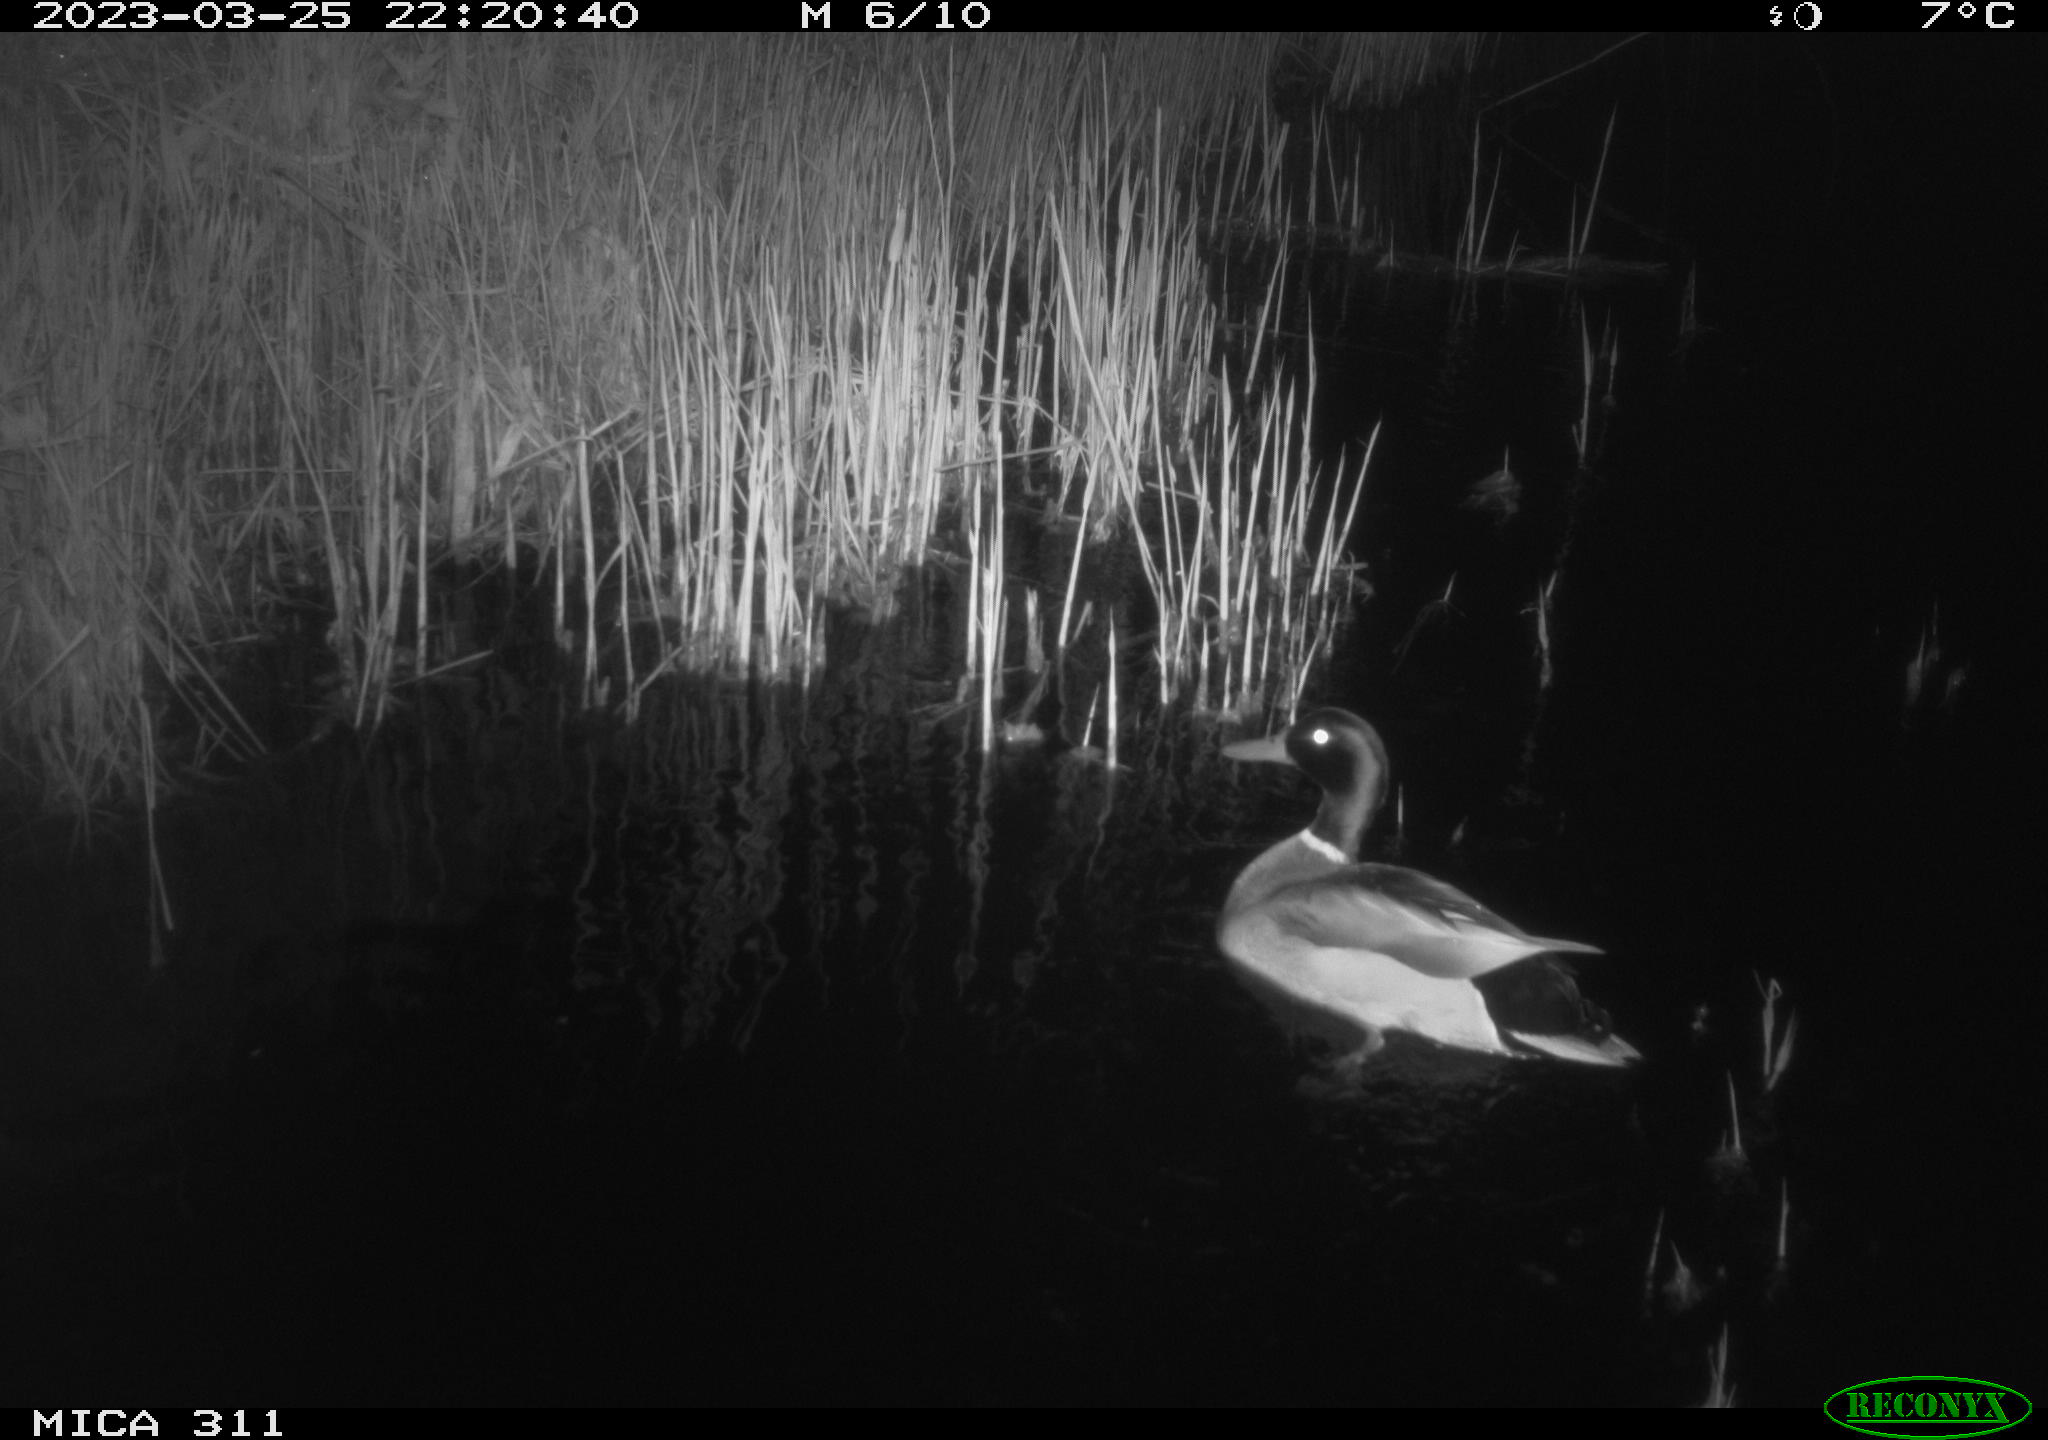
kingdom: Animalia
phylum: Chordata
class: Aves
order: Anseriformes
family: Anatidae
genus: Anas
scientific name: Anas
